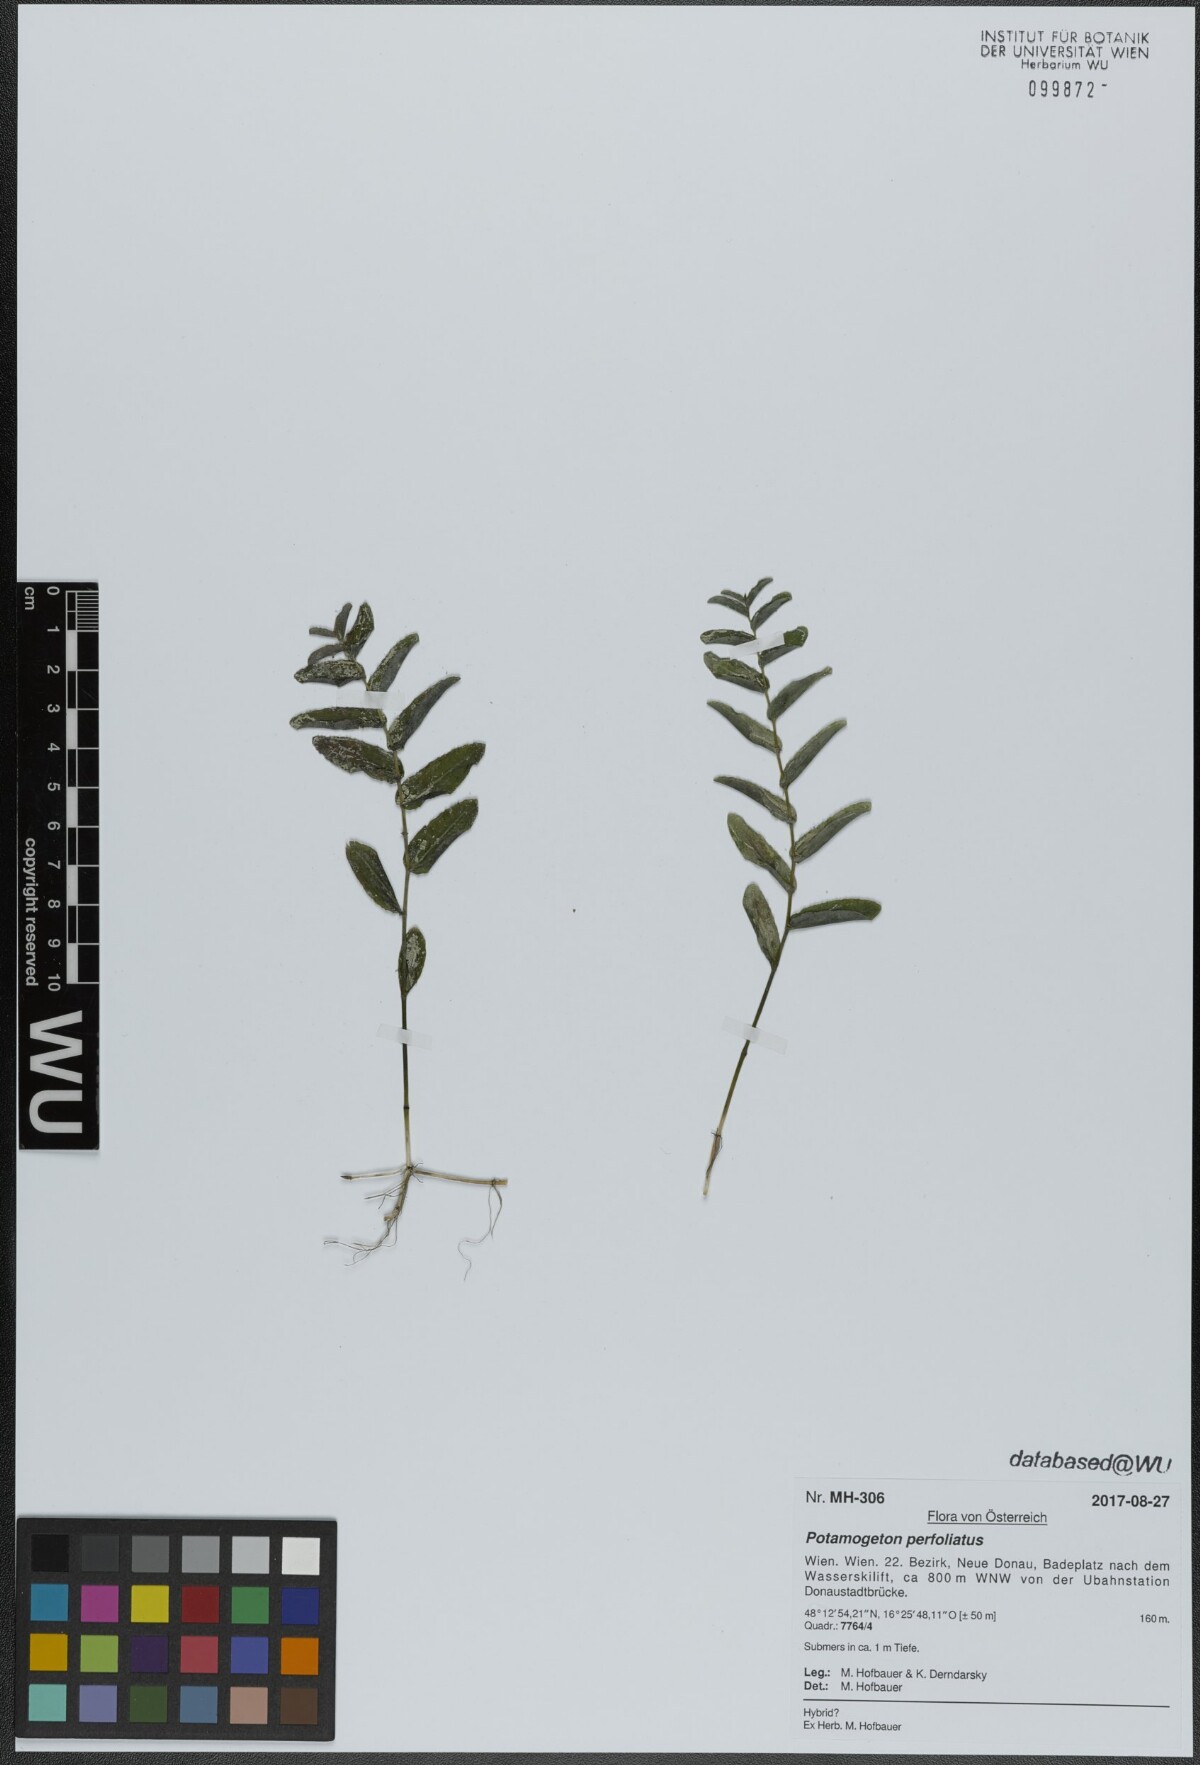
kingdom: Plantae
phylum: Tracheophyta
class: Liliopsida
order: Alismatales
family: Potamogetonaceae
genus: Potamogeton
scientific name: Potamogeton perfoliatus
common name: Perfoliate pondweed
